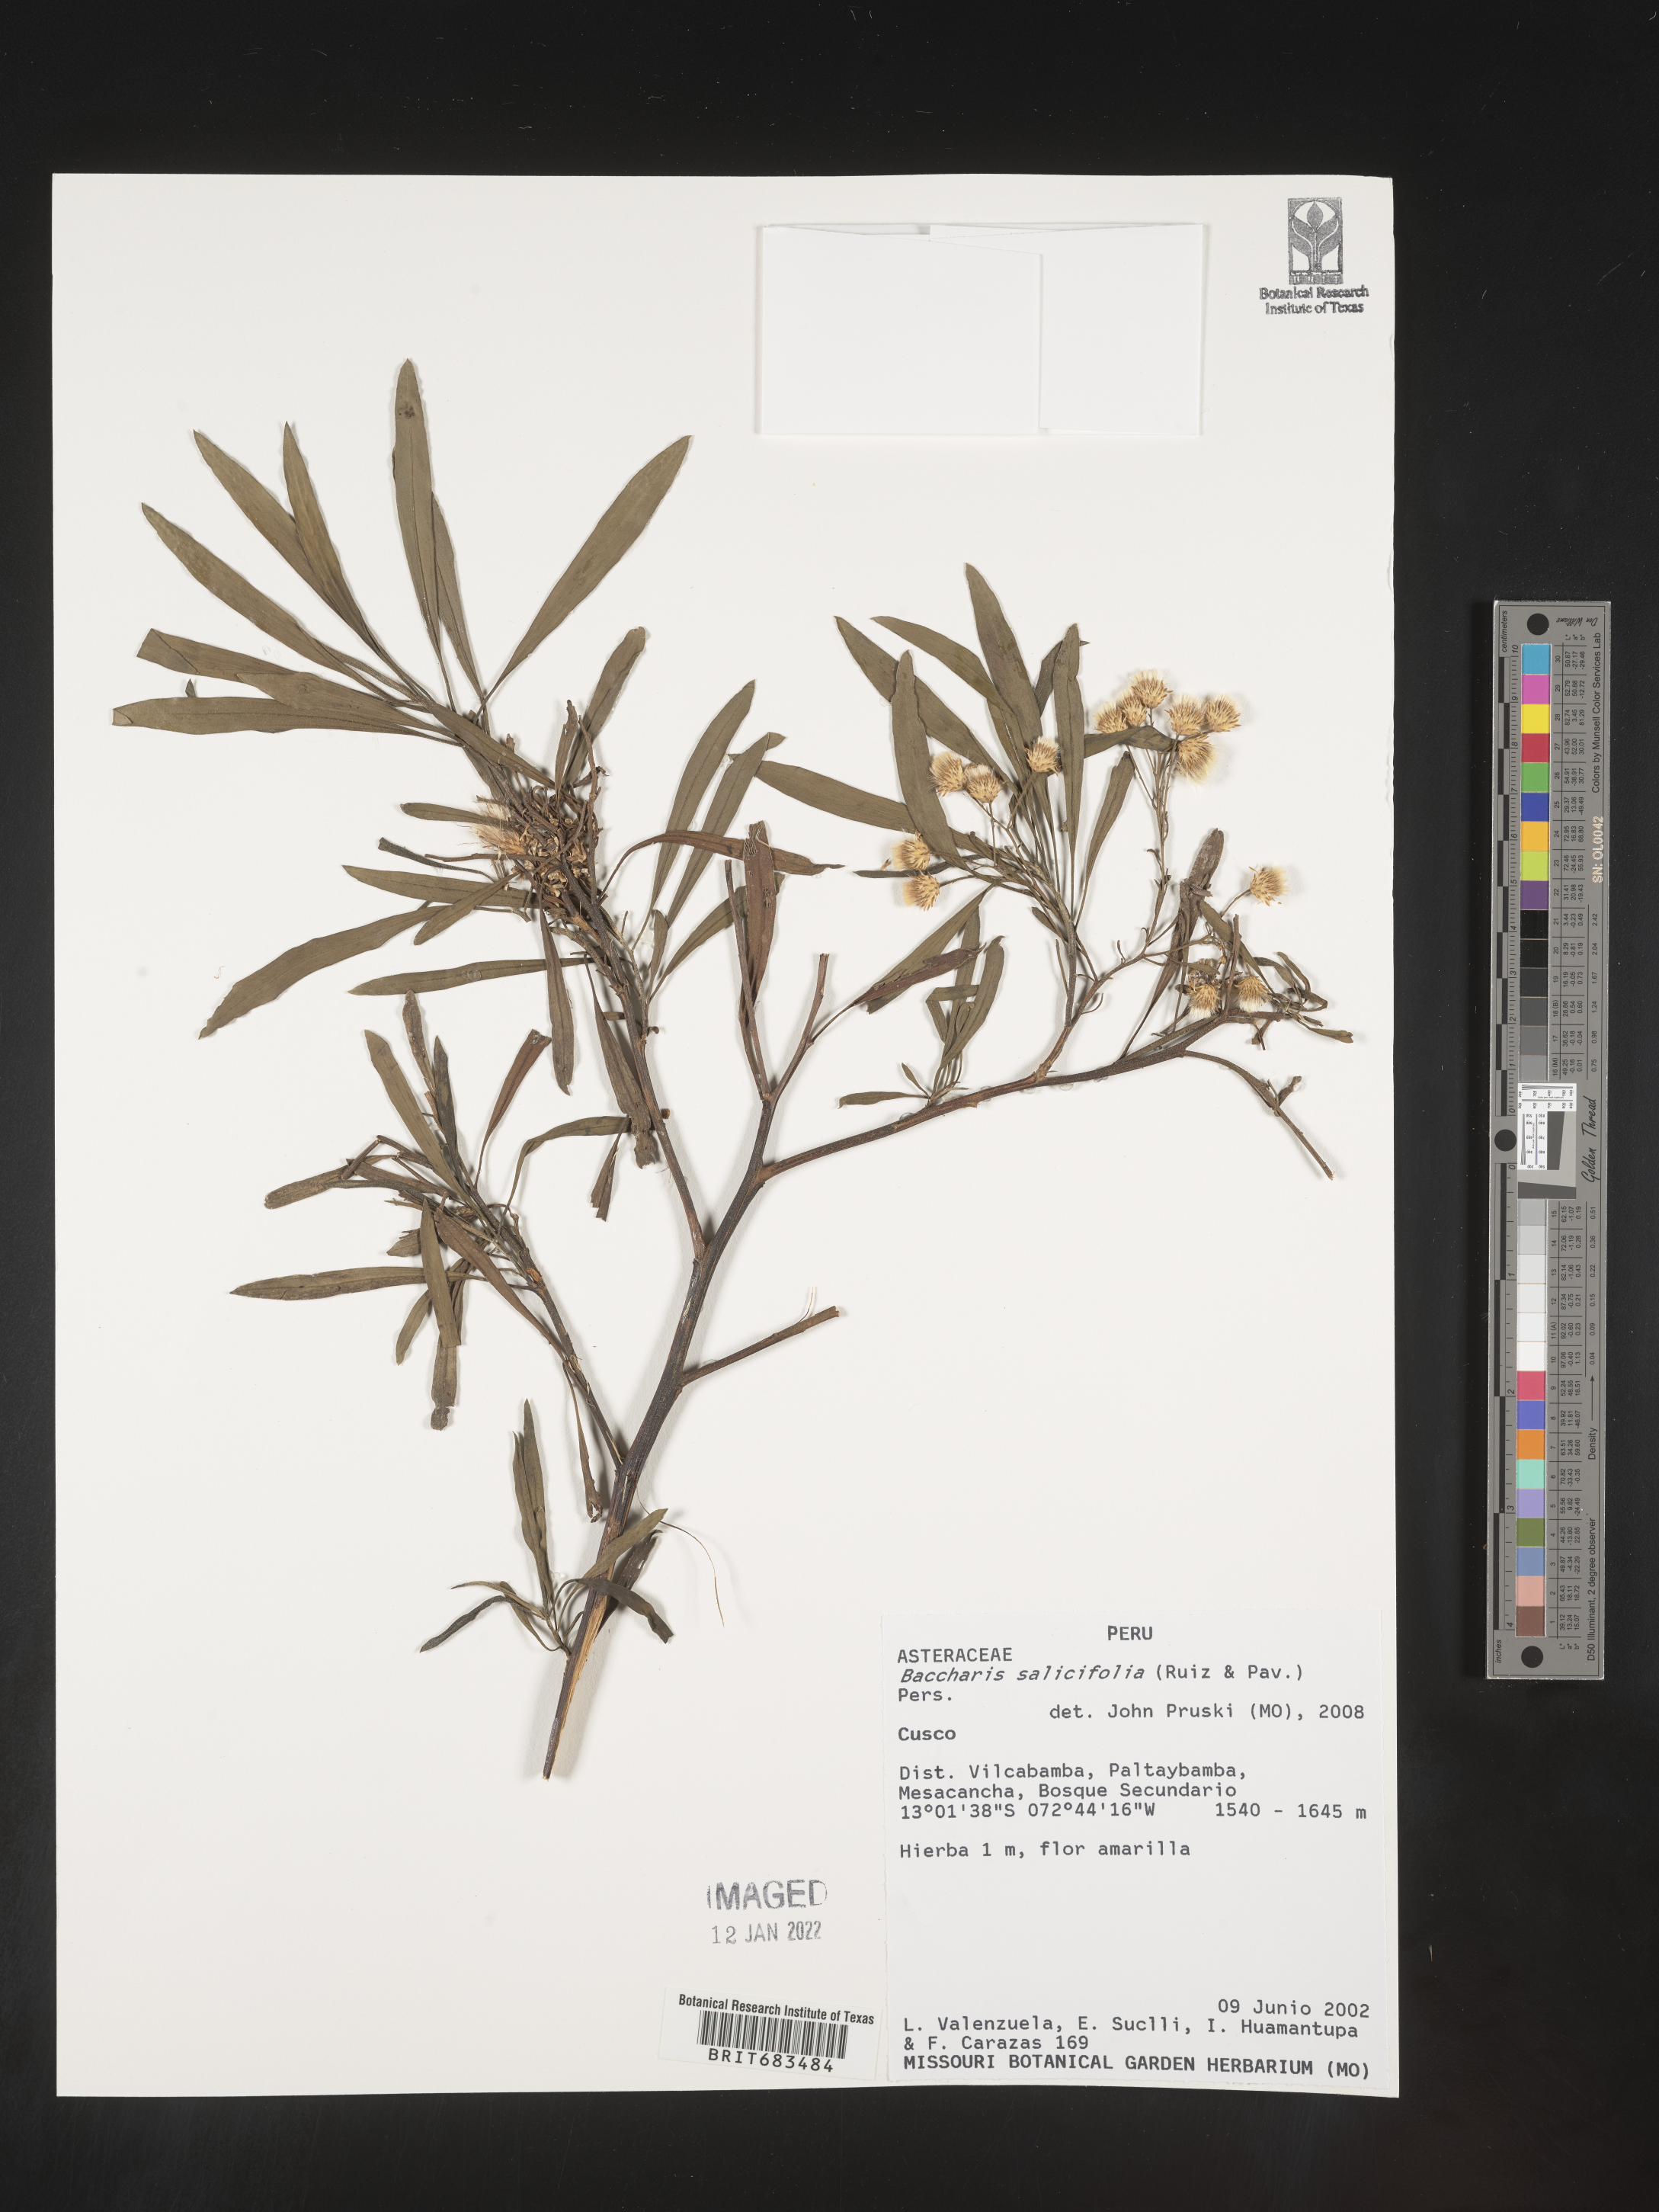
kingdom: Plantae
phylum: Tracheophyta
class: Magnoliopsida
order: Asterales
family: Asteraceae
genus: Baccharis
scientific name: Baccharis
